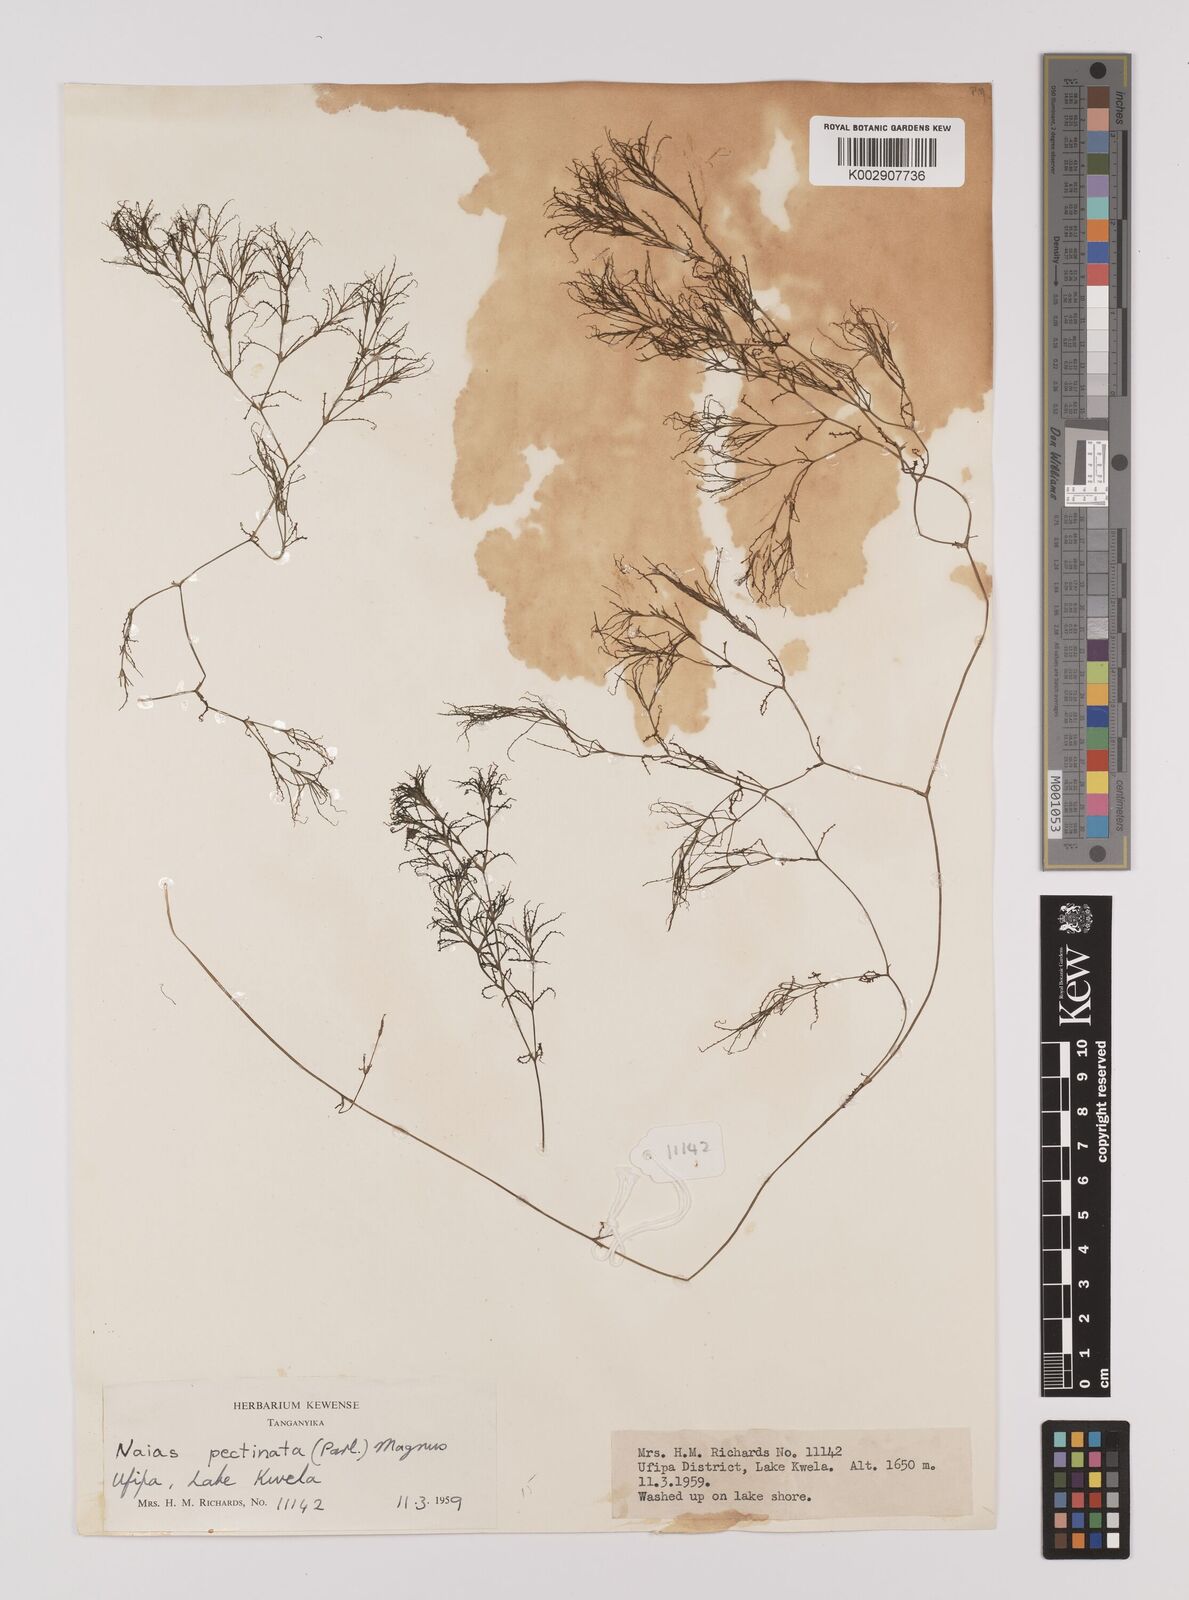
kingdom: Plantae
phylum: Tracheophyta
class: Liliopsida
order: Alismatales
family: Hydrocharitaceae
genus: Najas
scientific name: Najas horrida
